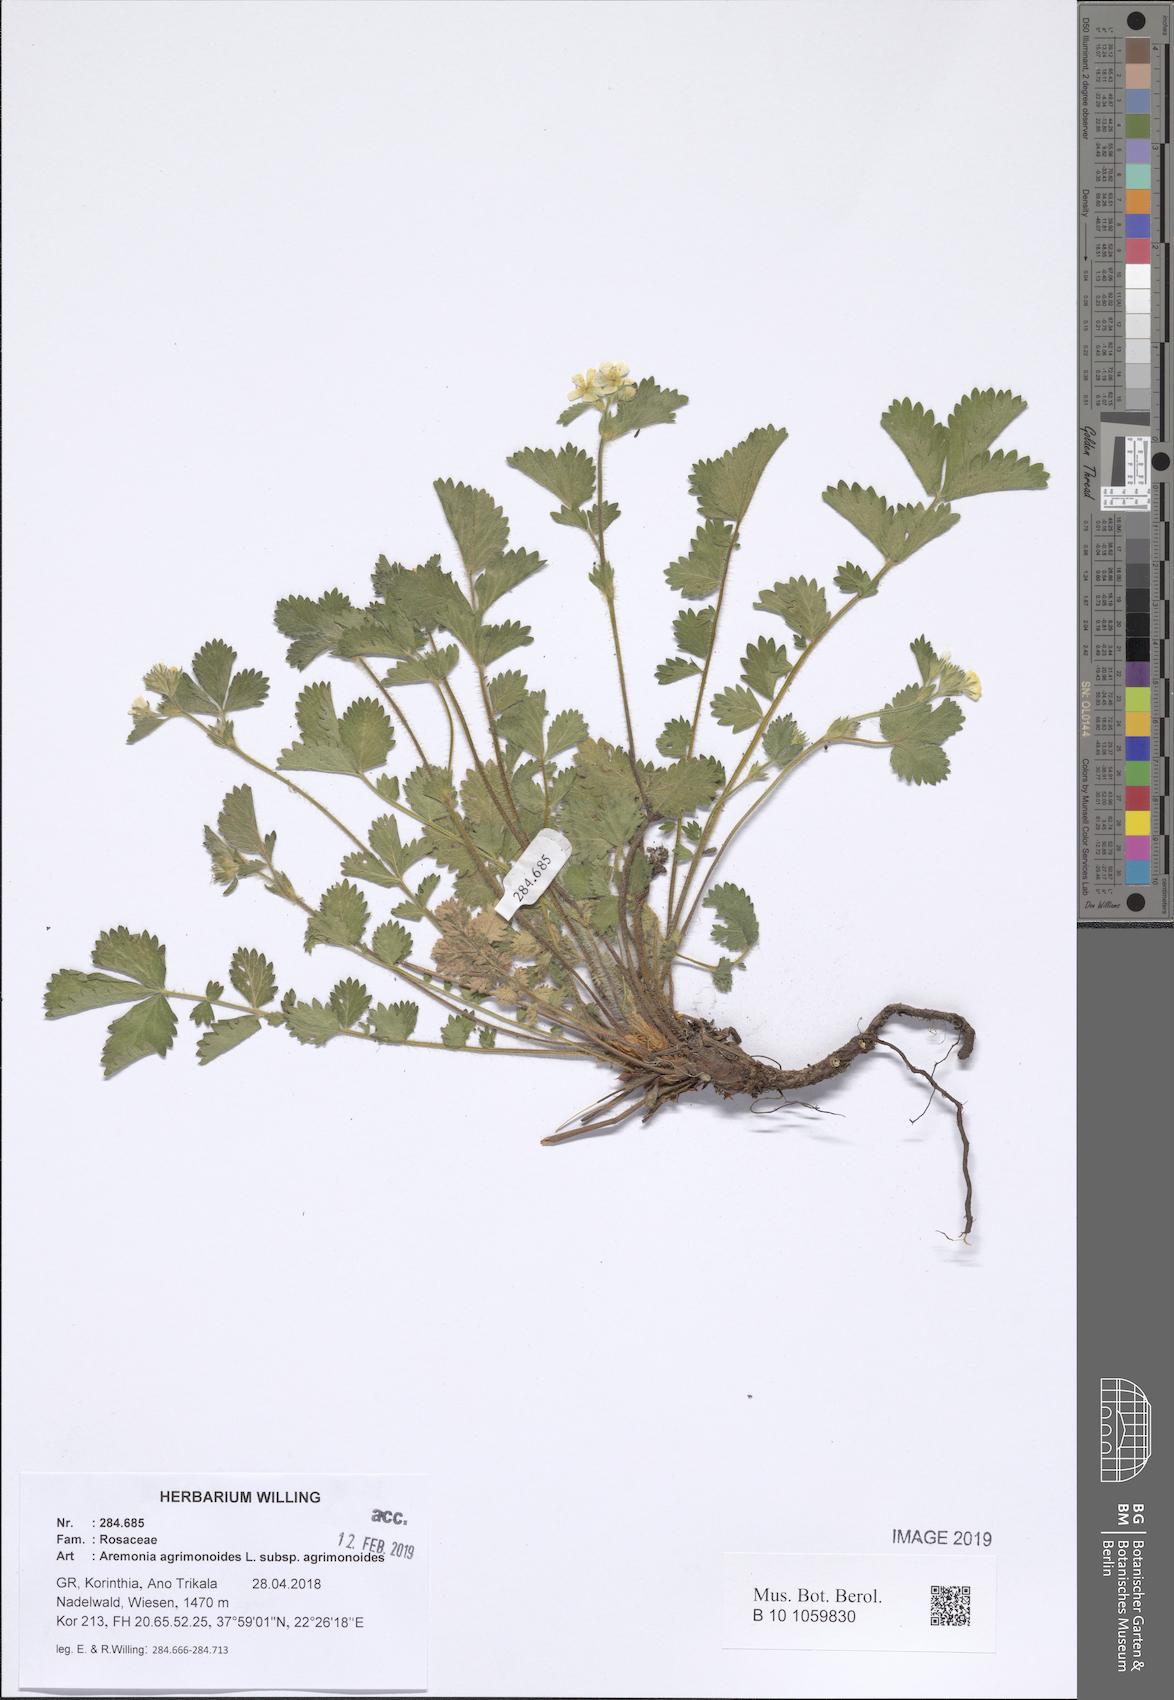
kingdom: Plantae
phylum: Tracheophyta
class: Magnoliopsida
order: Rosales
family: Rosaceae
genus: Aremonia
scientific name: Aremonia agrimonoides
